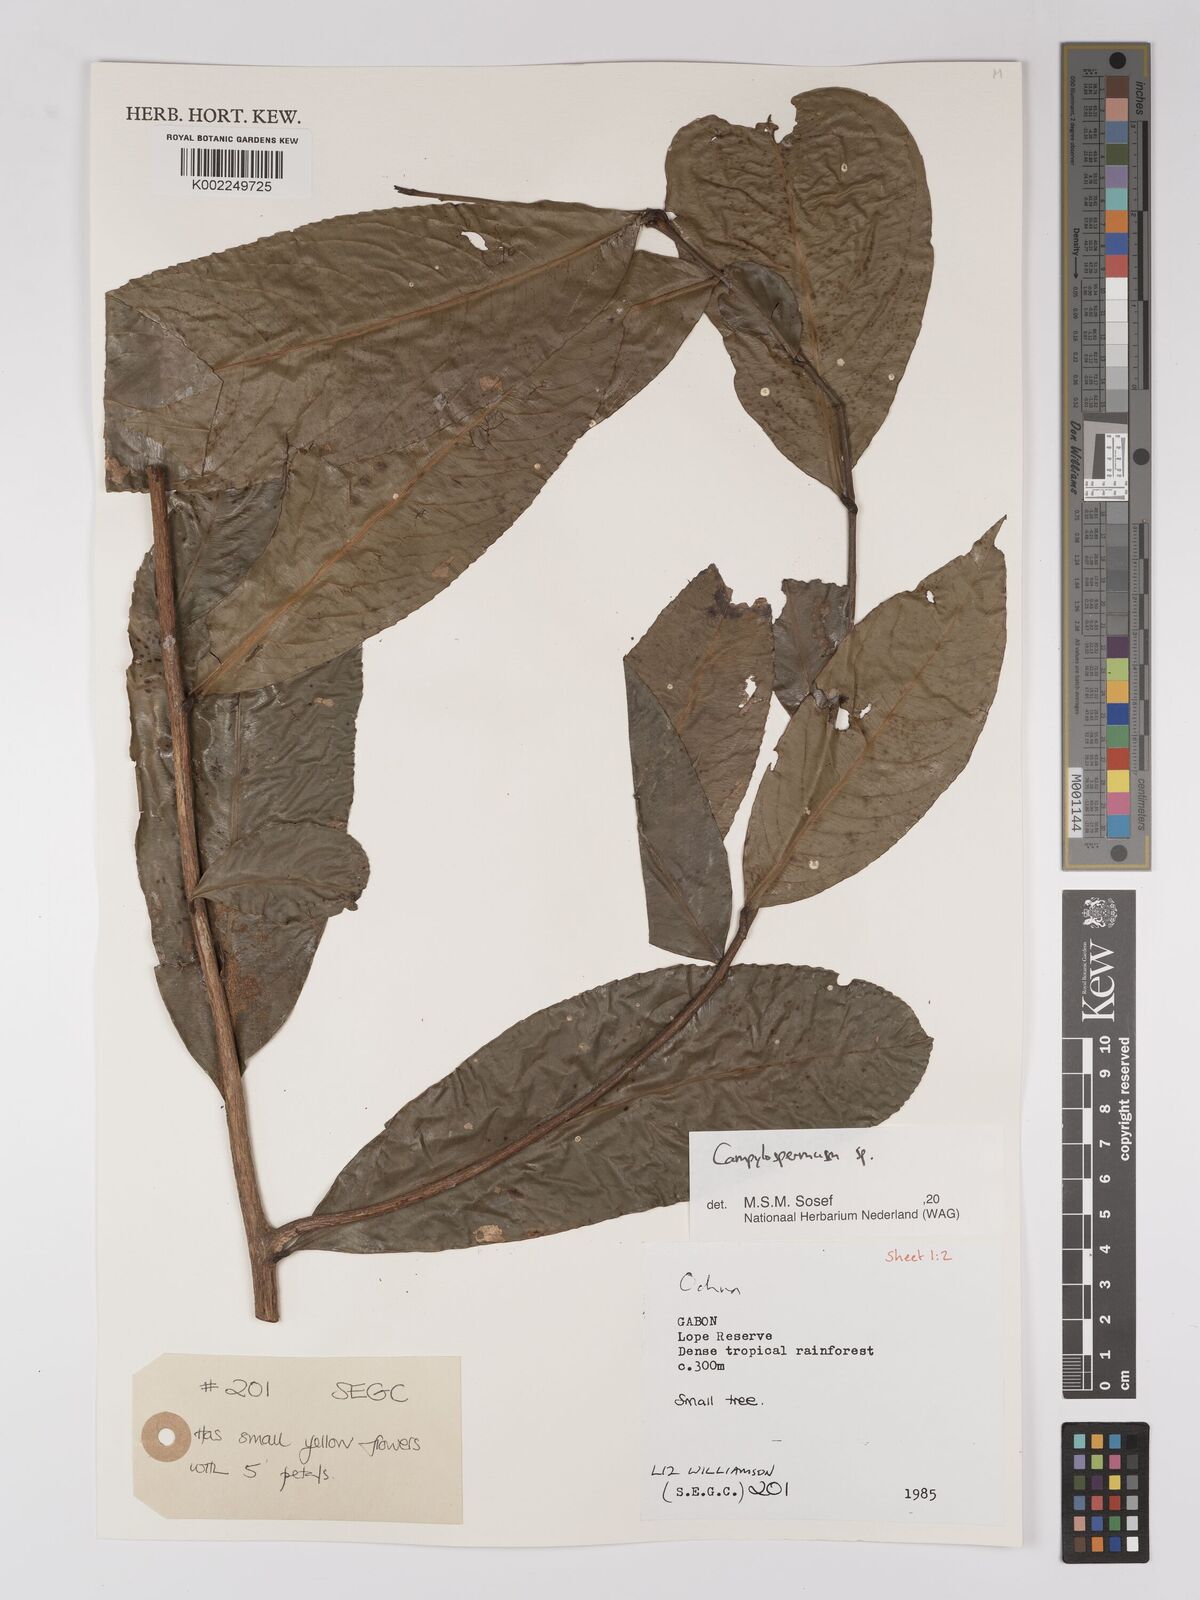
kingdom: Plantae
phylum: Tracheophyta
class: Magnoliopsida
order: Malpighiales
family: Ochnaceae
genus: Campylospermum
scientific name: Campylospermum
